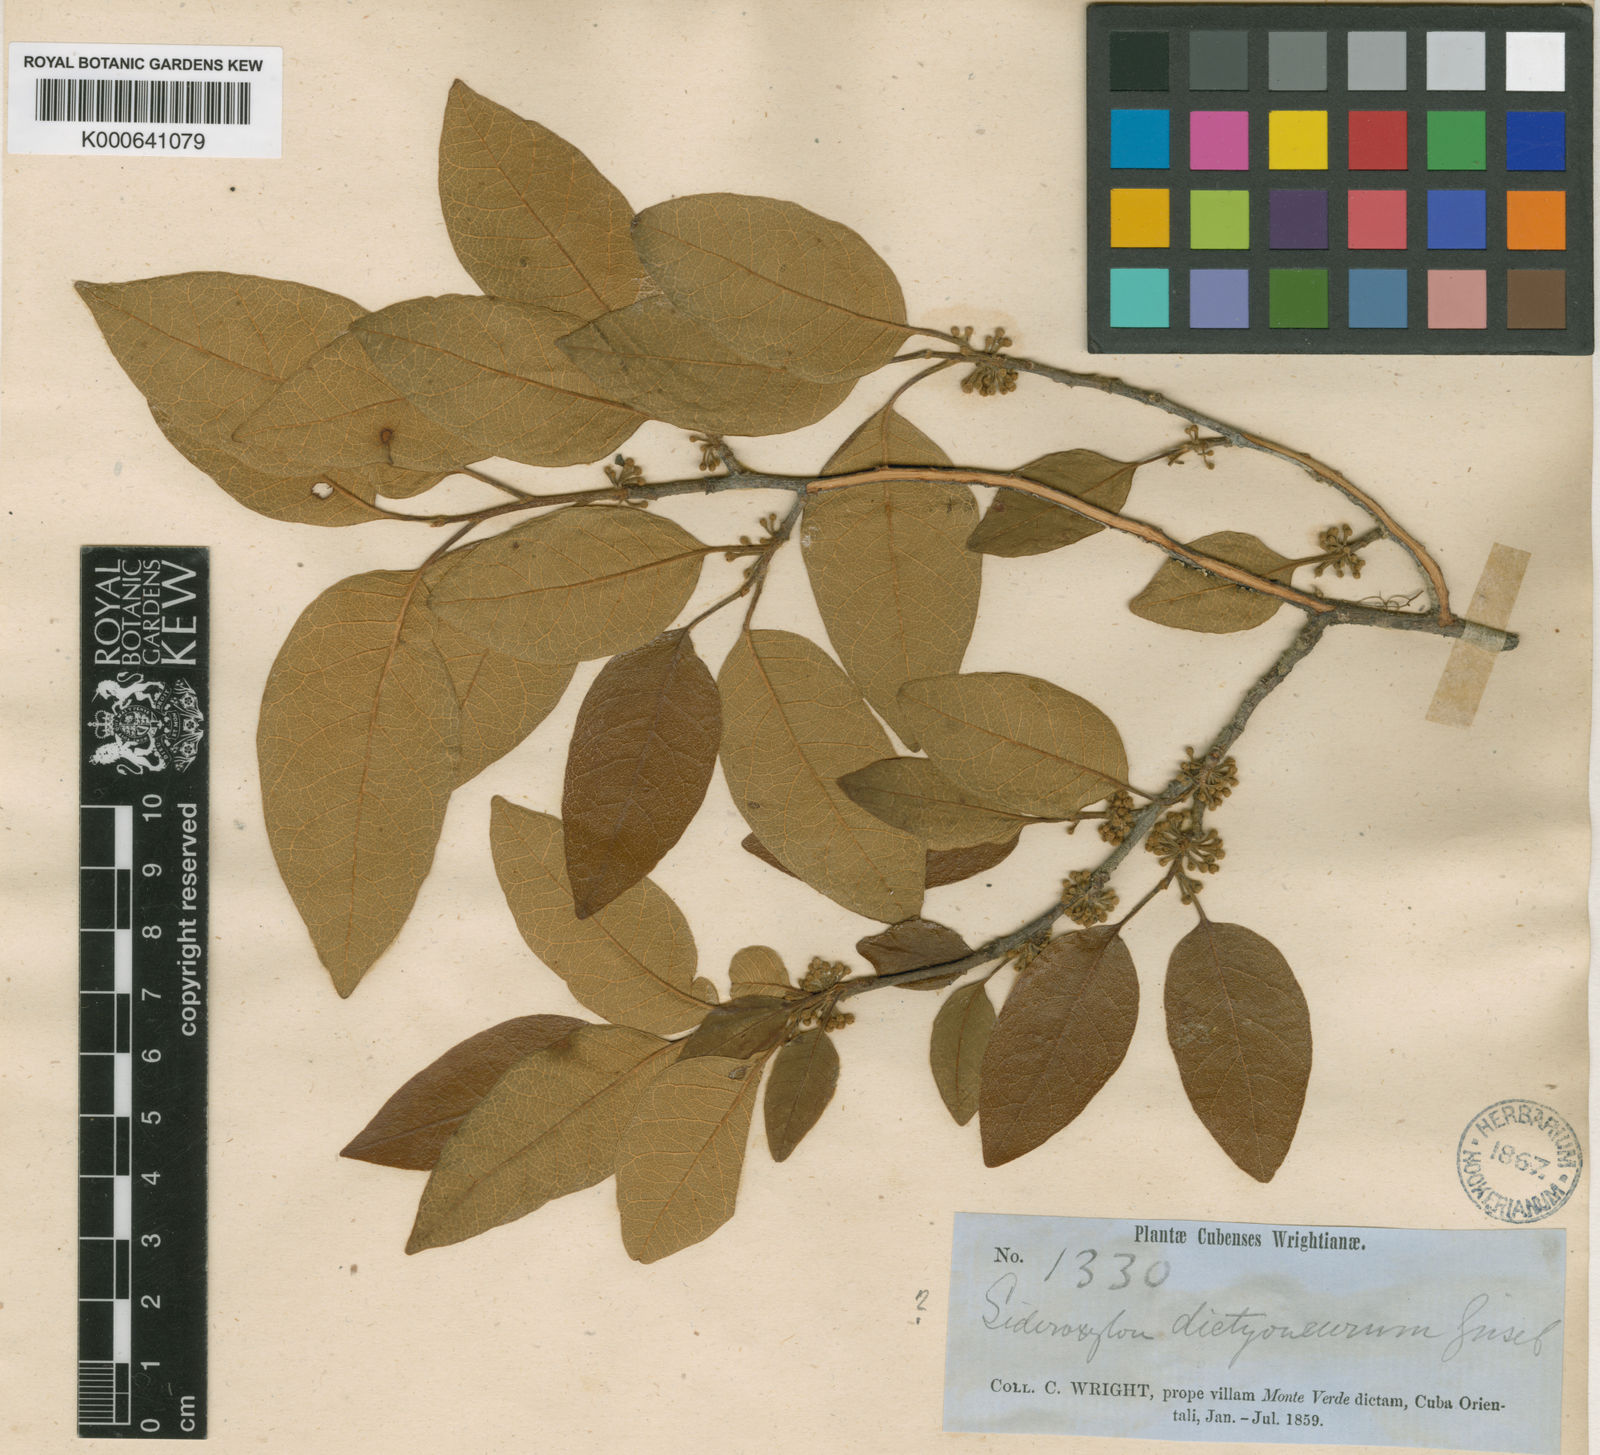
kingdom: Plantae
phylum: Tracheophyta
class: Magnoliopsida
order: Ericales
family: Sapotaceae
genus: Pouteria
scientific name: Pouteria dictyoneura
